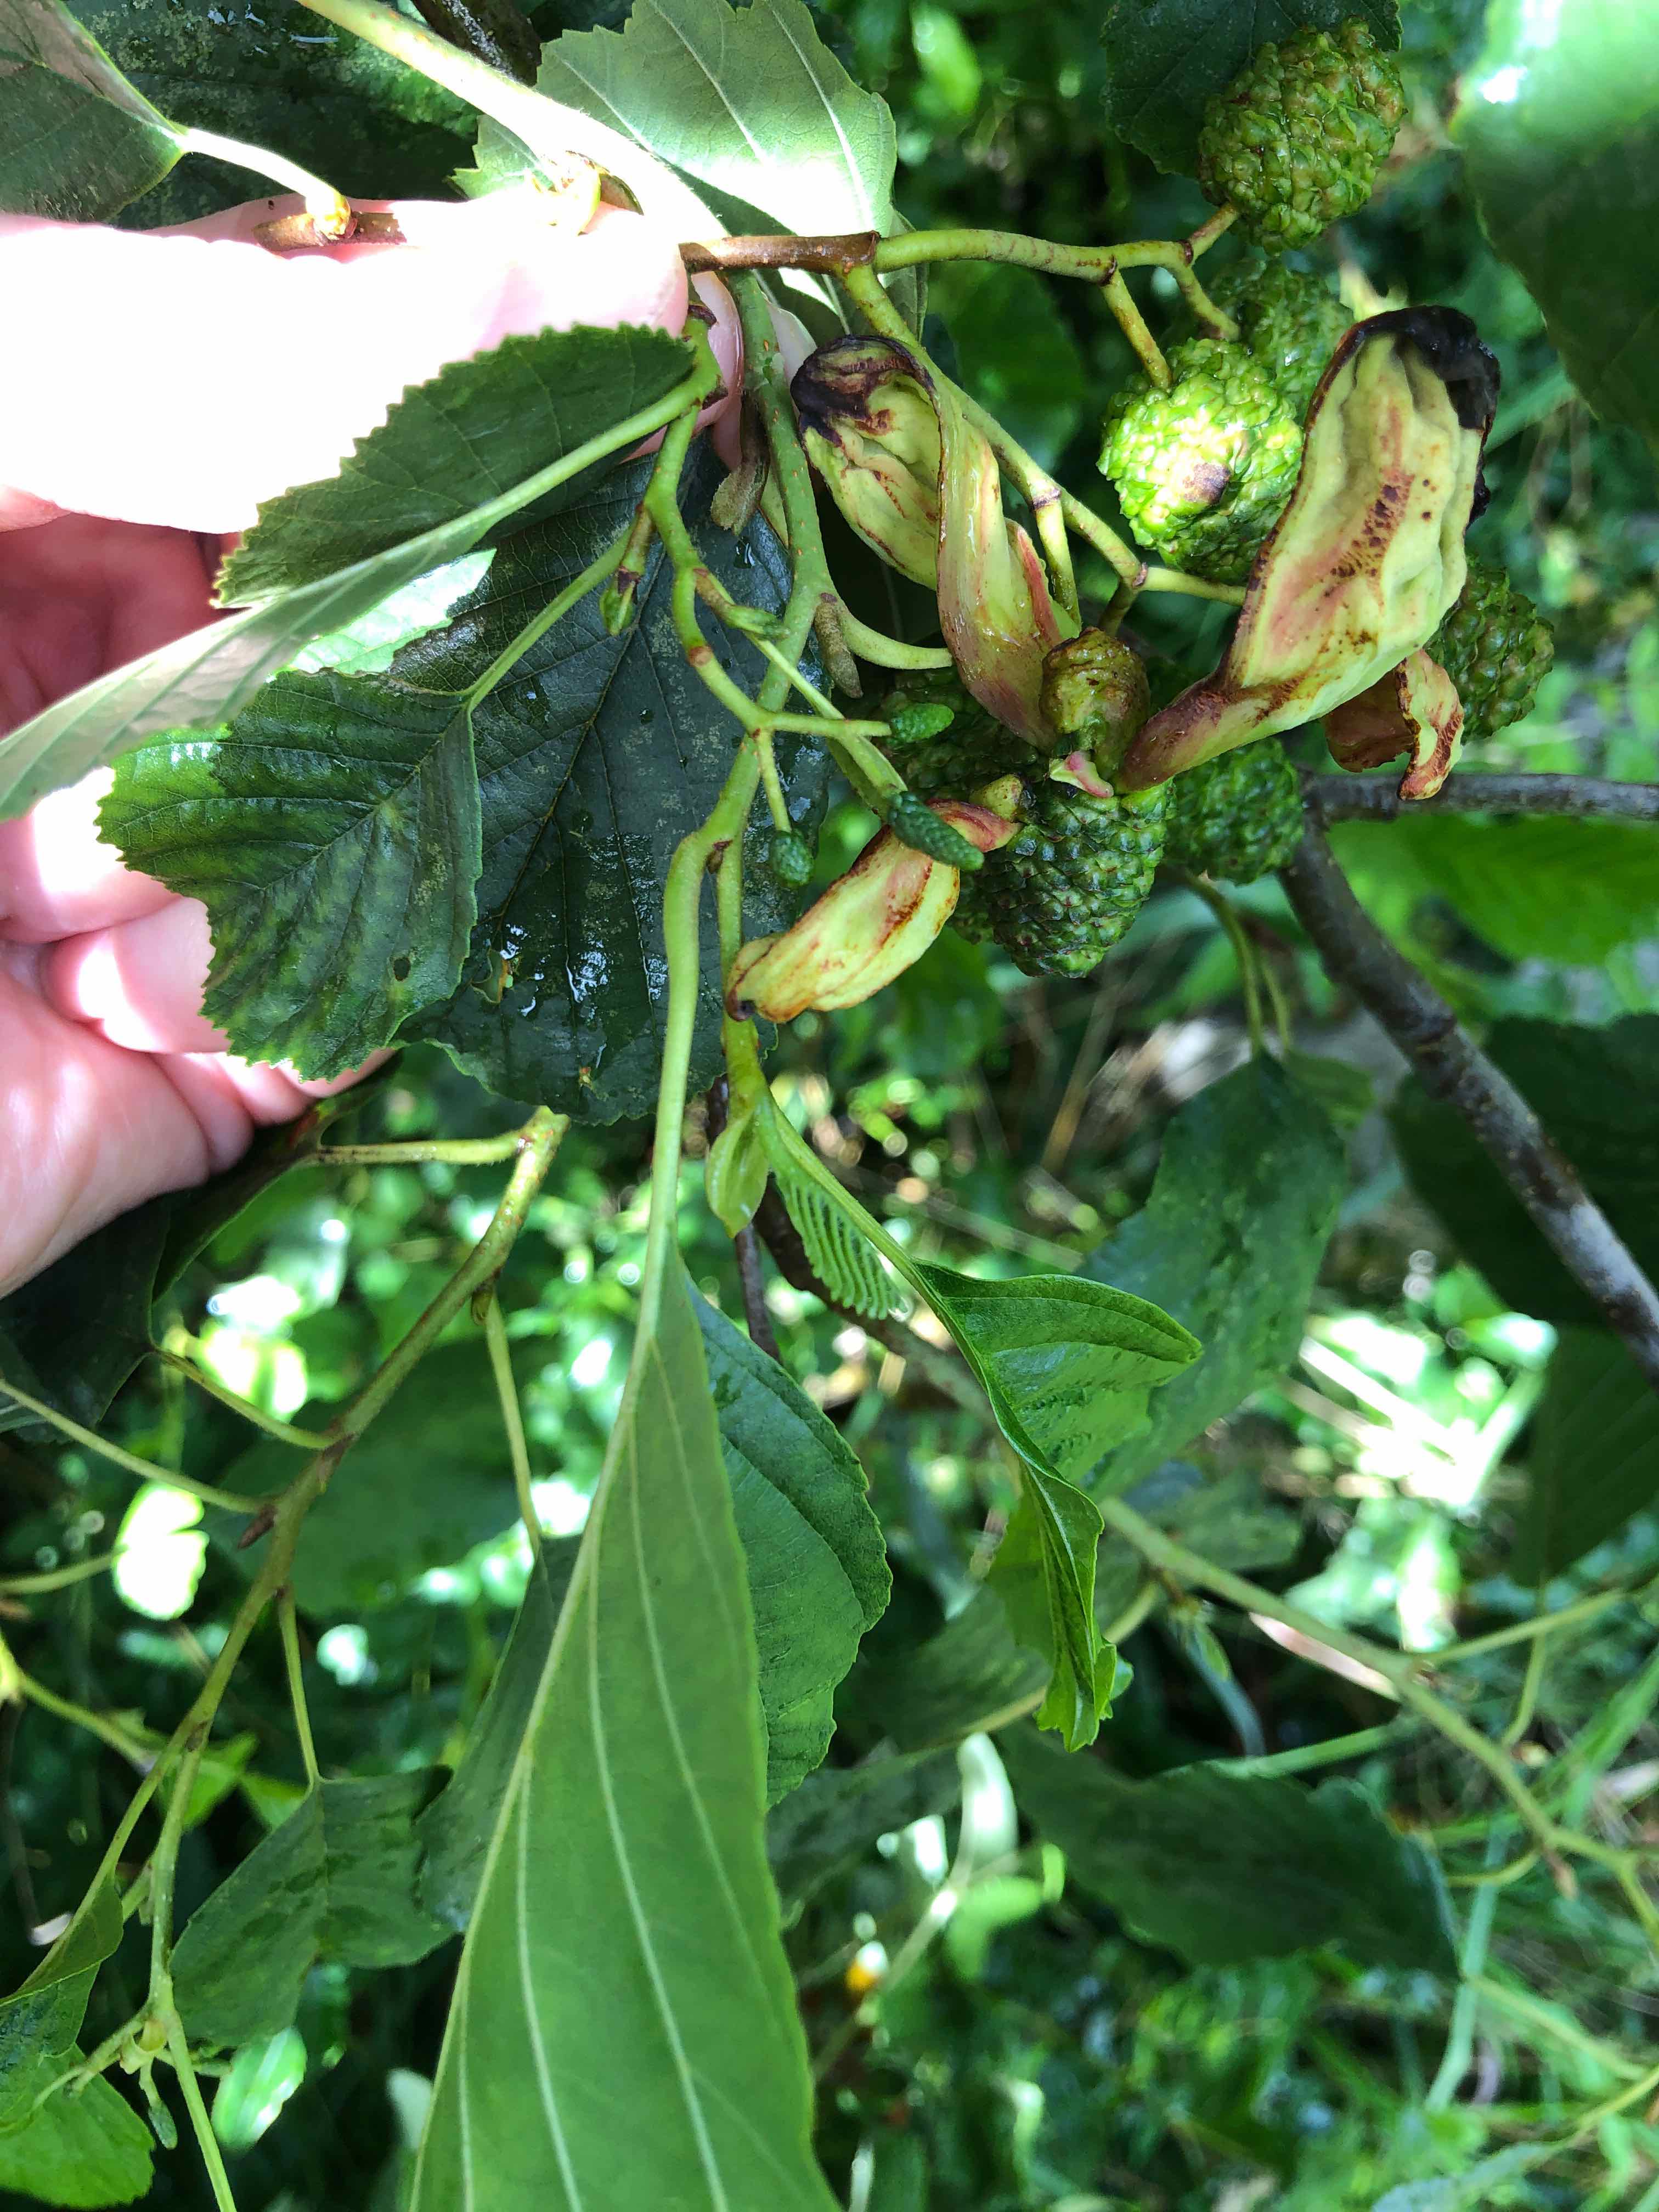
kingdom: Fungi
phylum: Ascomycota
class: Taphrinomycetes
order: Taphrinales
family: Taphrinaceae
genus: Taphrina
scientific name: Taphrina alni
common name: Alder tongue
